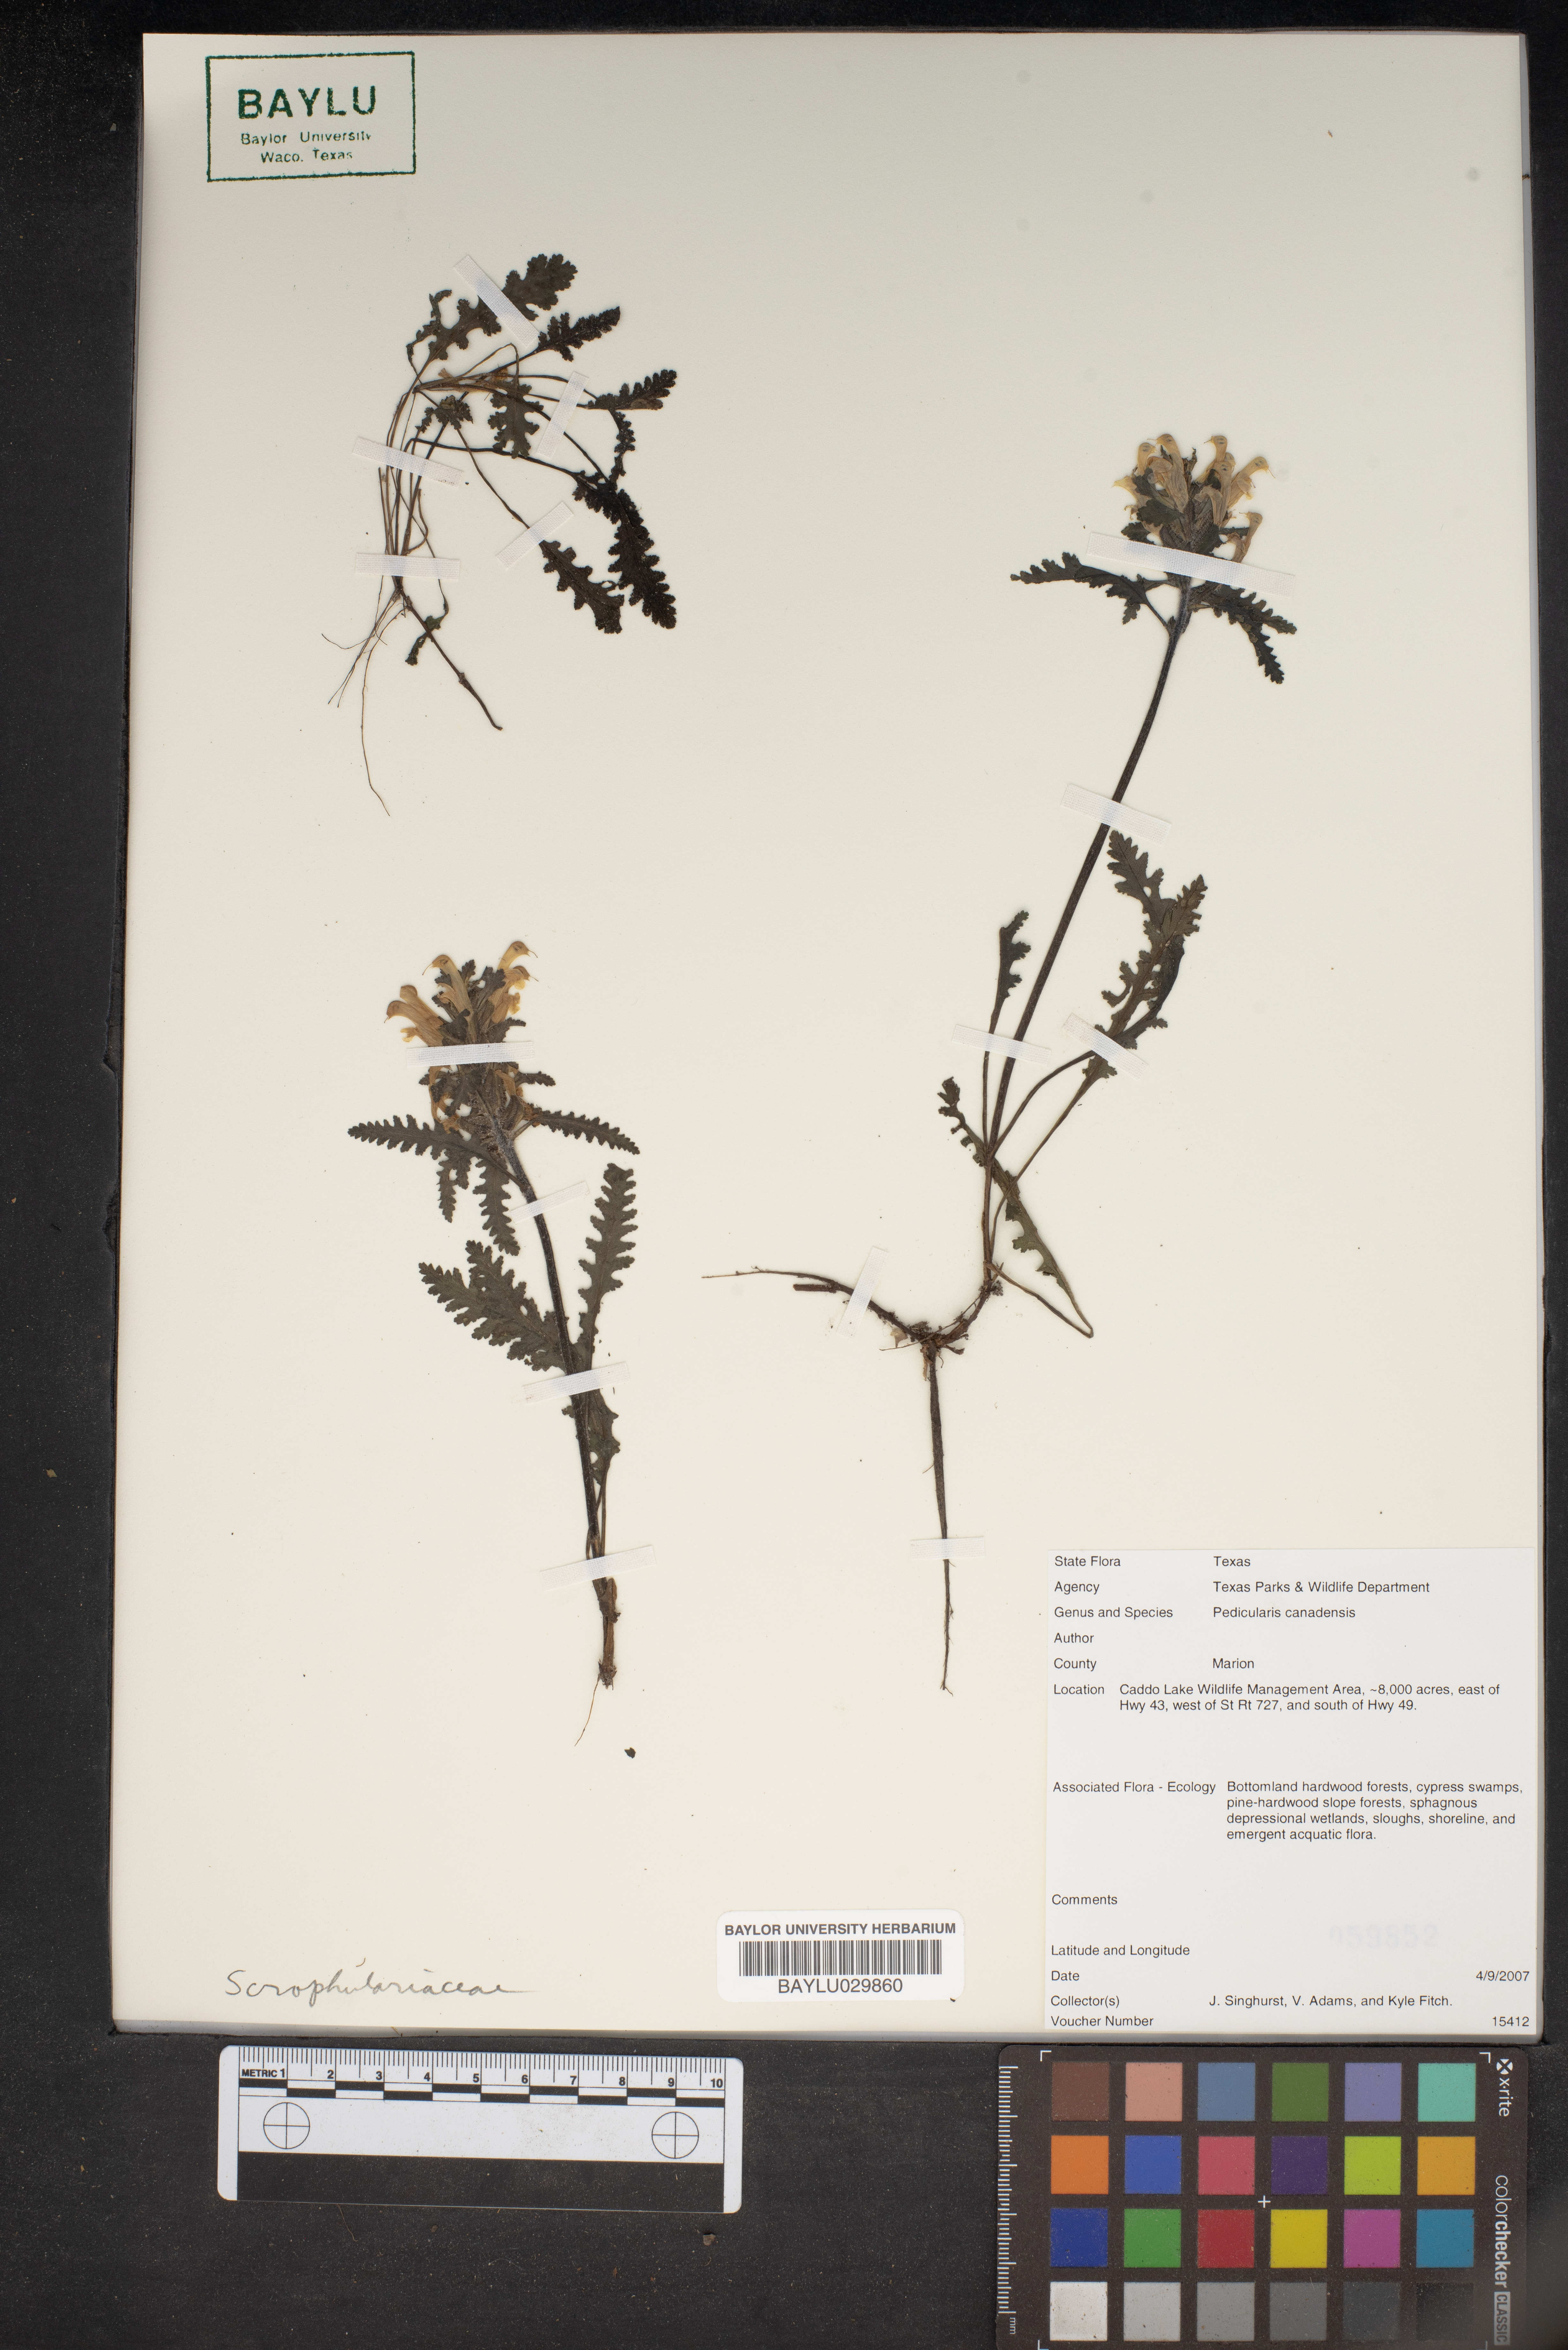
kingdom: Plantae
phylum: Tracheophyta
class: Magnoliopsida
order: Lamiales
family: Orobanchaceae
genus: Pedicularis
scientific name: Pedicularis canadensis
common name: Early lousewort
